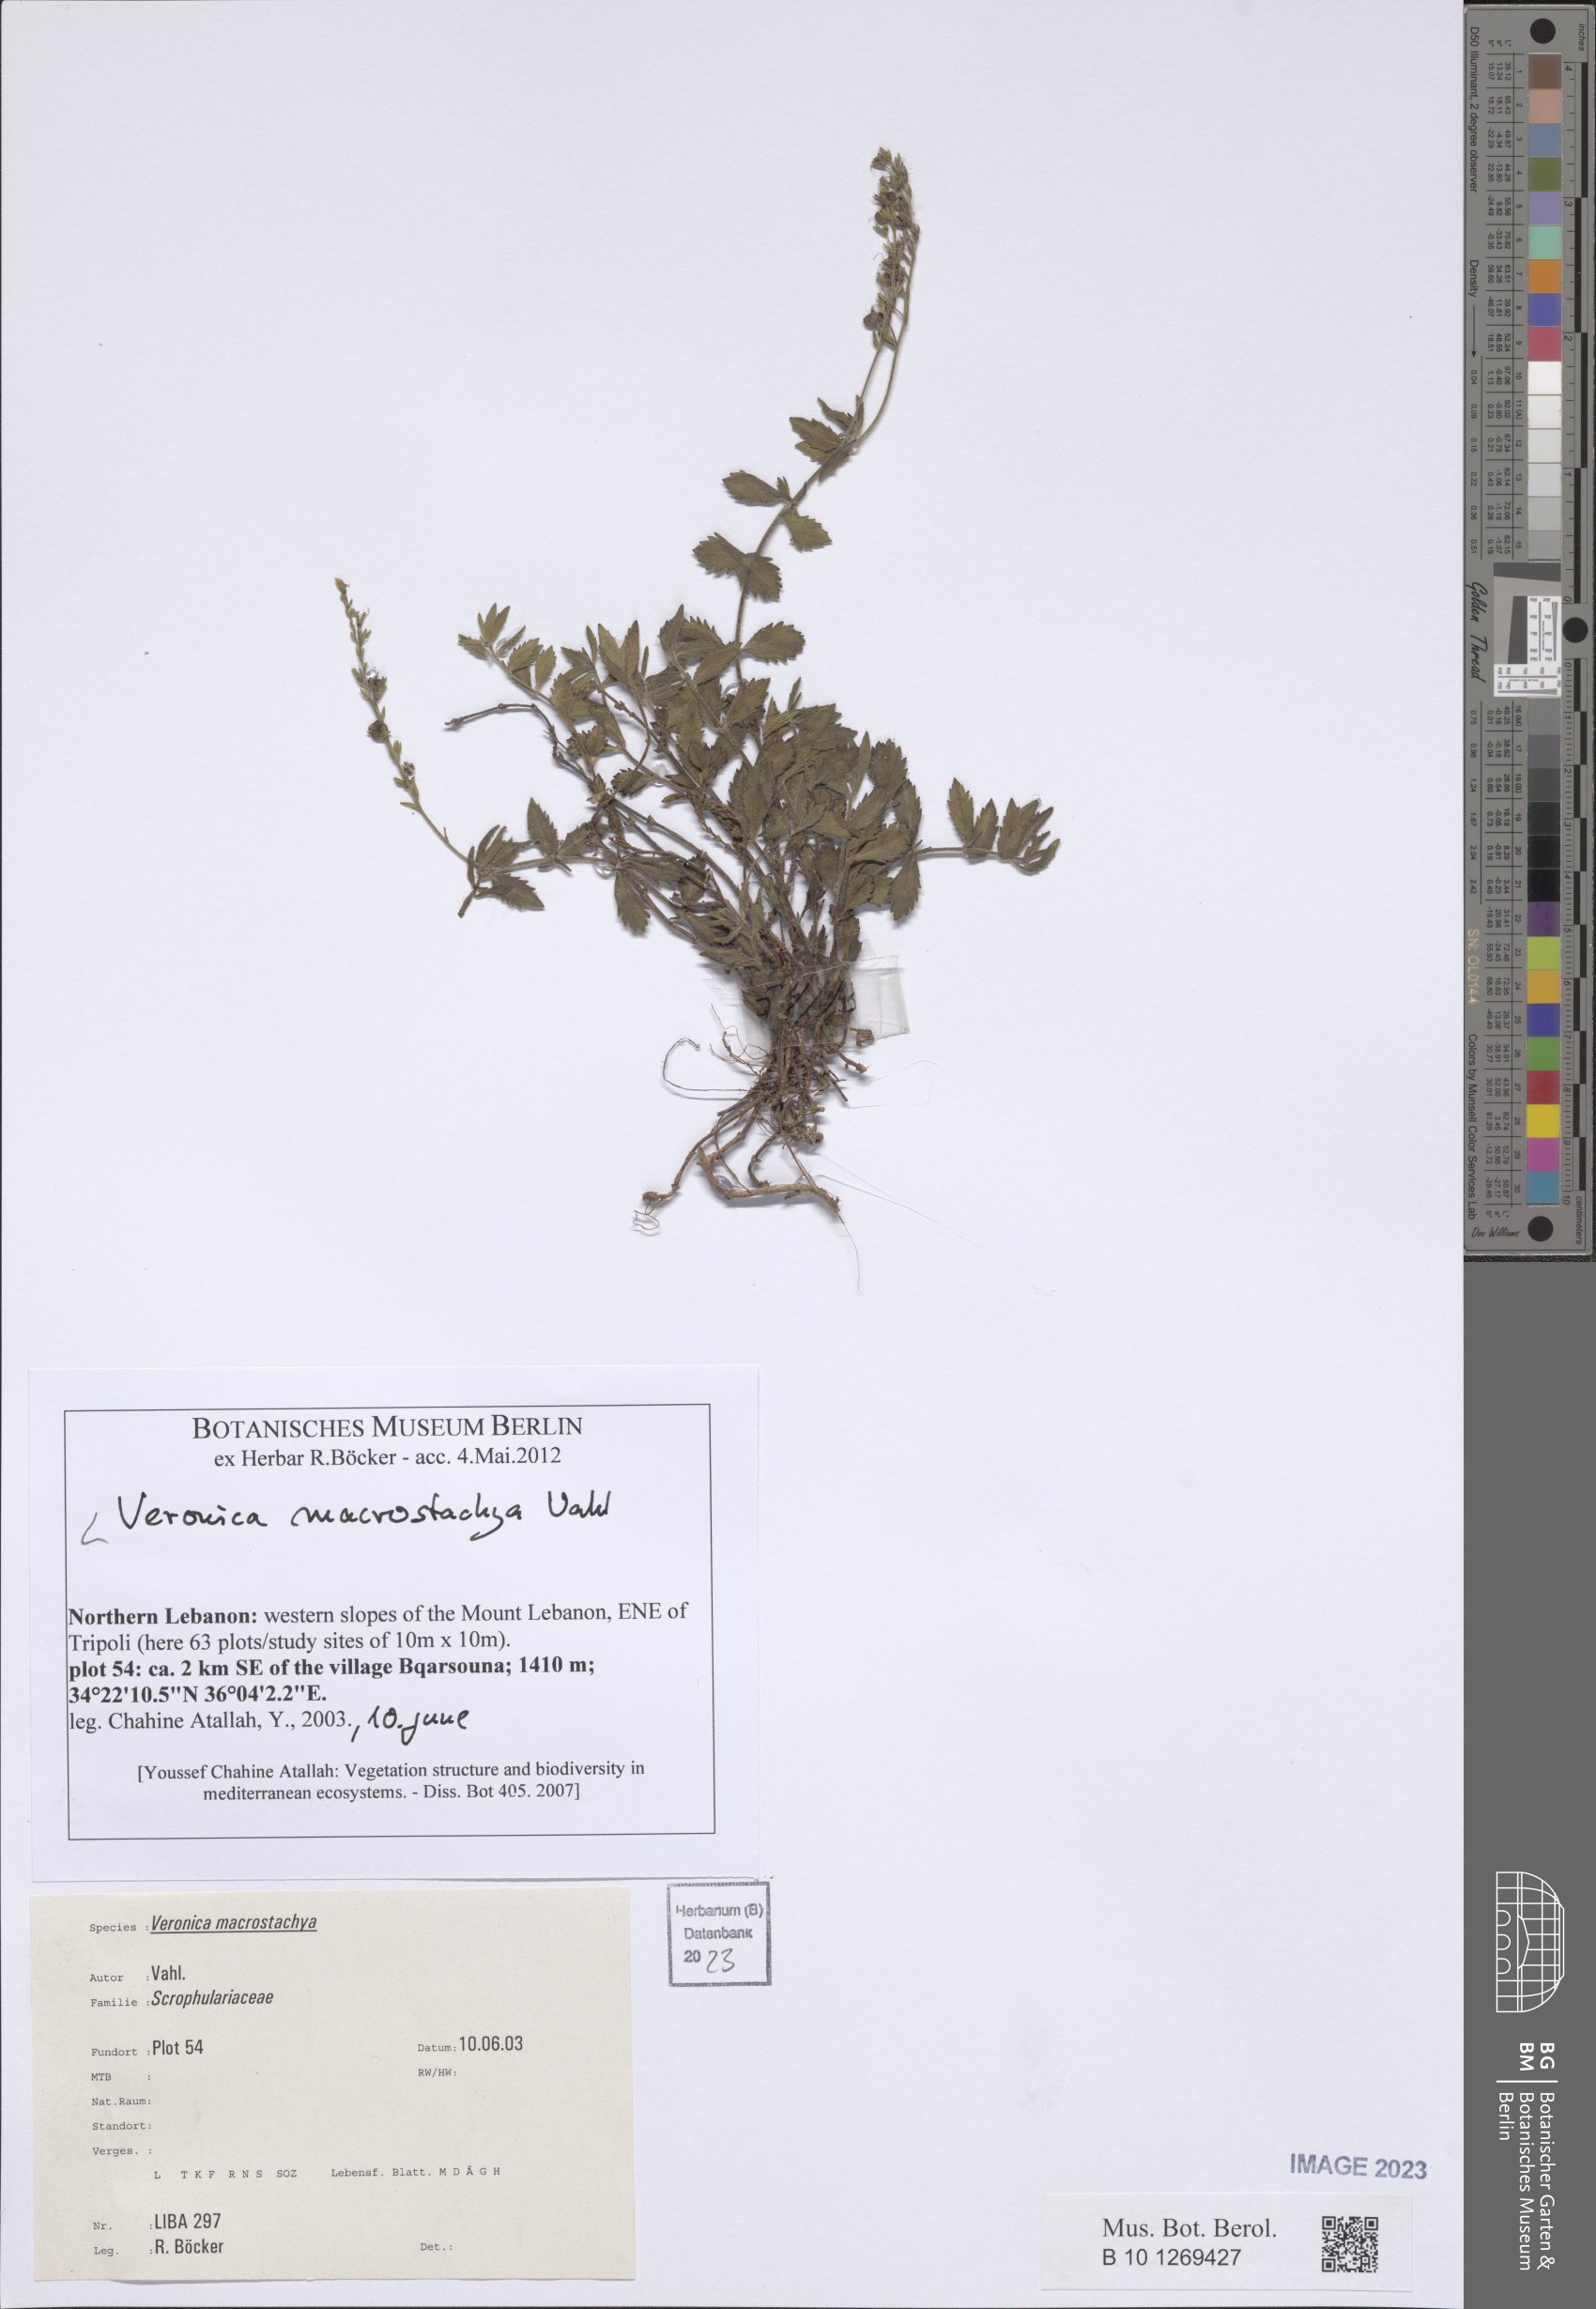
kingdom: Plantae
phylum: Tracheophyta
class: Magnoliopsida
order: Lamiales
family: Plantaginaceae
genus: Veronica
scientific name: Veronica macrostachya
